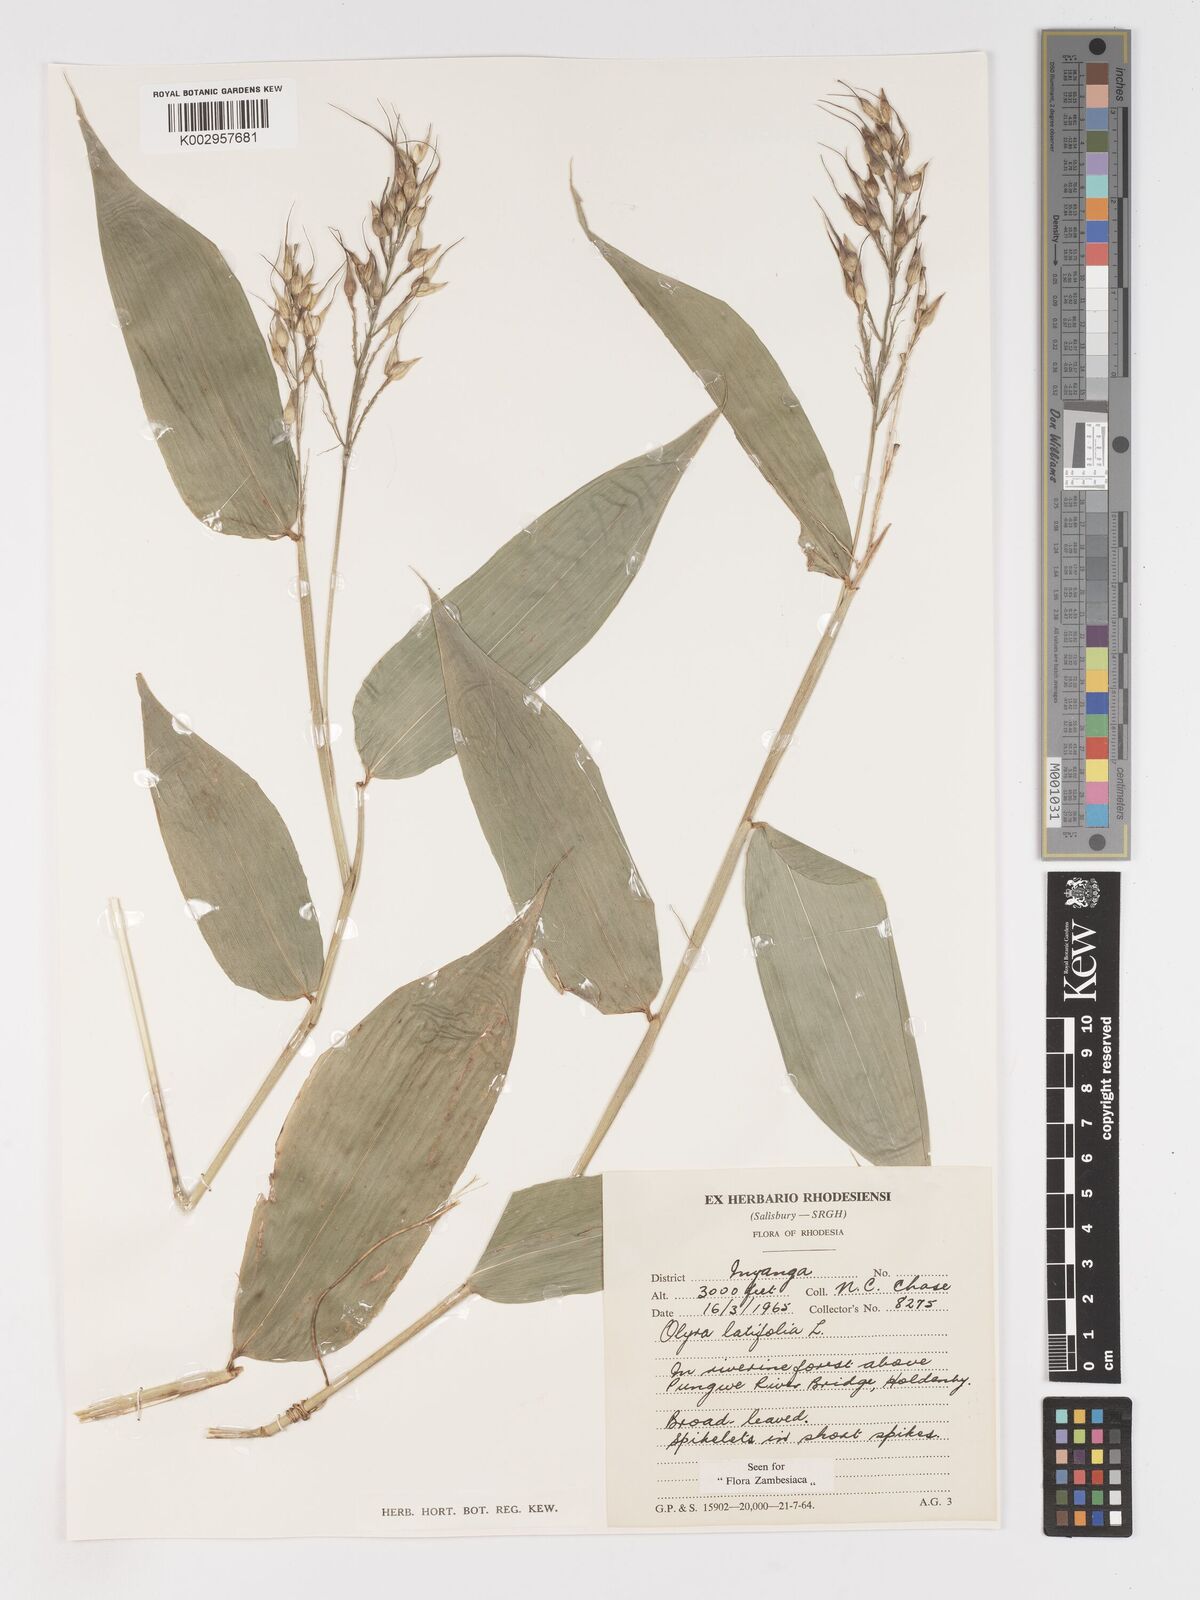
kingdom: Plantae
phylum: Tracheophyta
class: Liliopsida
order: Poales
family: Poaceae
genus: Olyra
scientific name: Olyra latifolia
